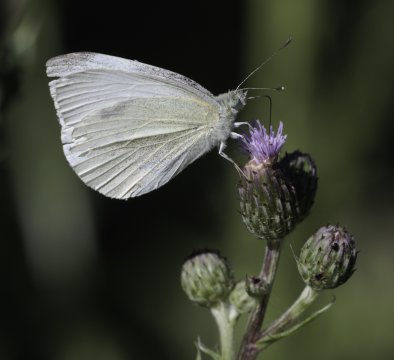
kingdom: Animalia
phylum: Arthropoda
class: Insecta
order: Lepidoptera
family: Pieridae
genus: Pieris
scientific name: Pieris rapae
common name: Cabbage White
